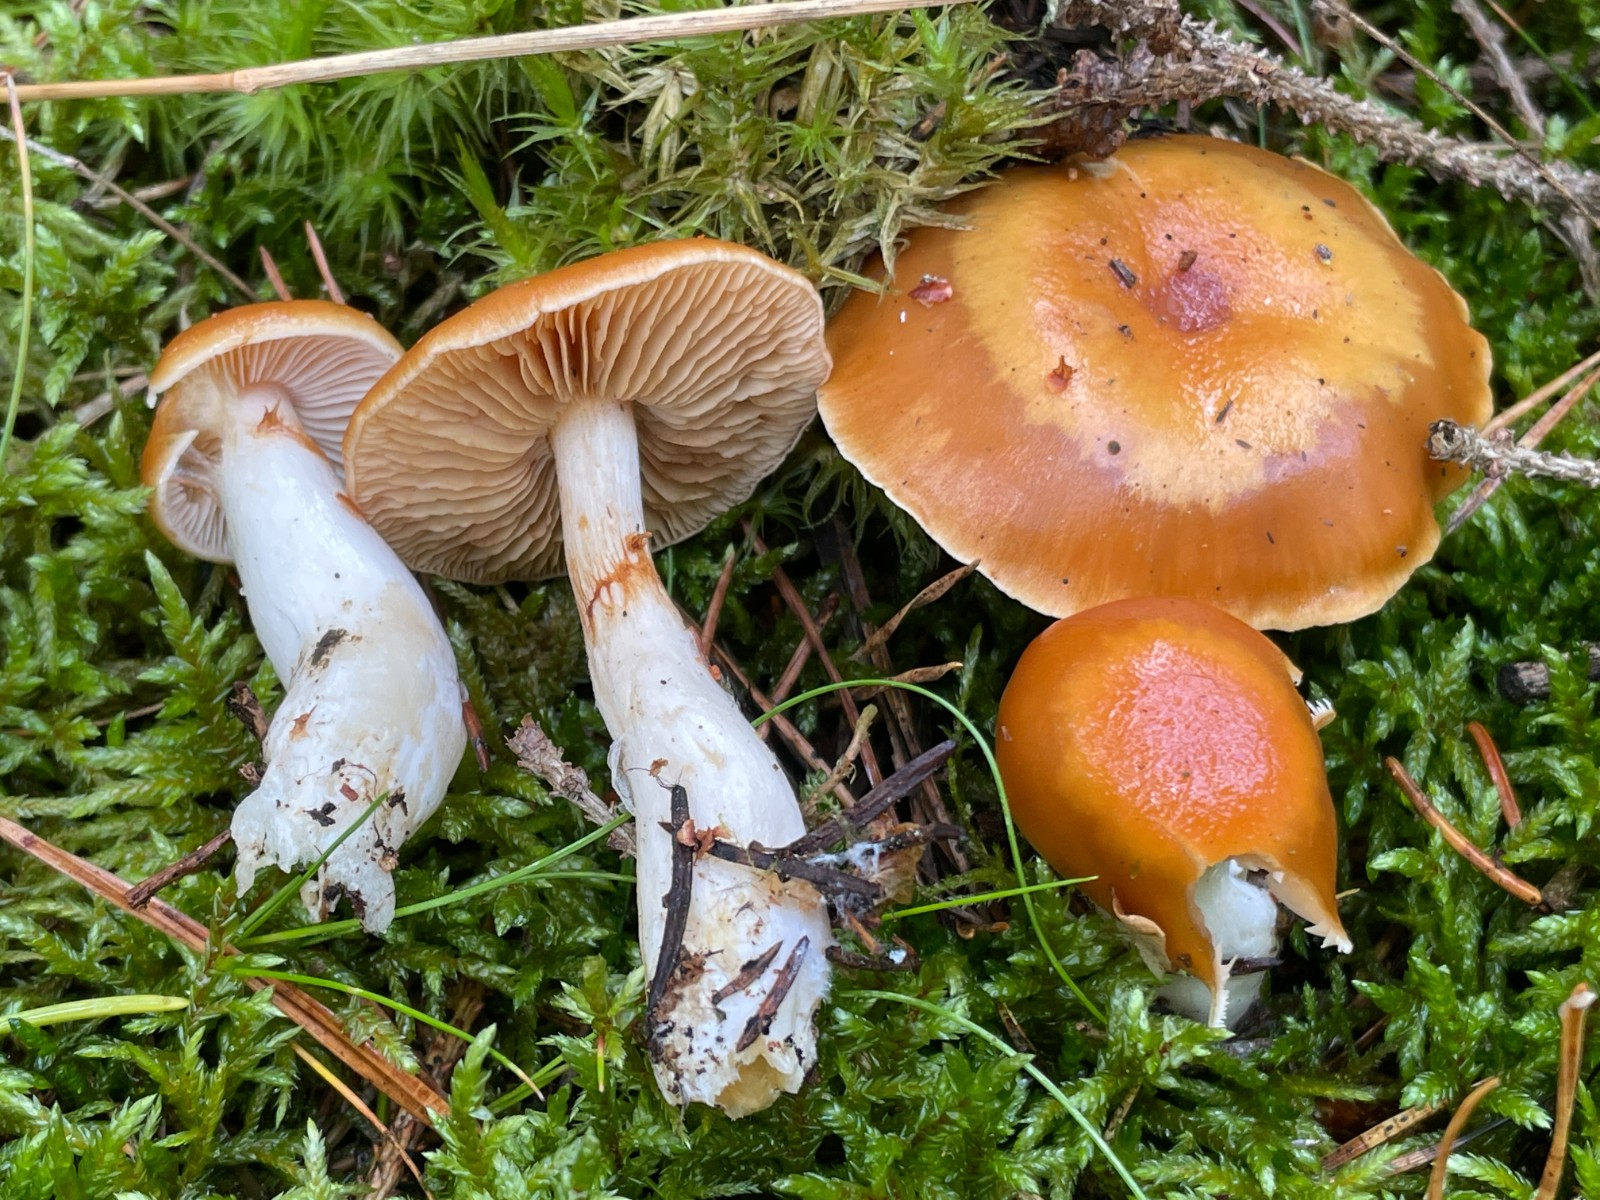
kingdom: Fungi
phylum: Basidiomycota
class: Agaricomycetes
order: Agaricales
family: Cortinariaceae
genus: Thaxterogaster
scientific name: Thaxterogaster
